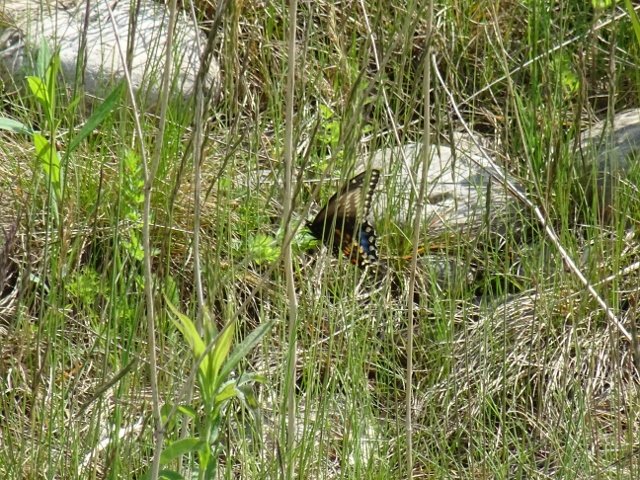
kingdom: Animalia
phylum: Arthropoda
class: Insecta
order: Lepidoptera
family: Papilionidae
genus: Papilio
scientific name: Papilio polyxenes
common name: Black Swallowtail
